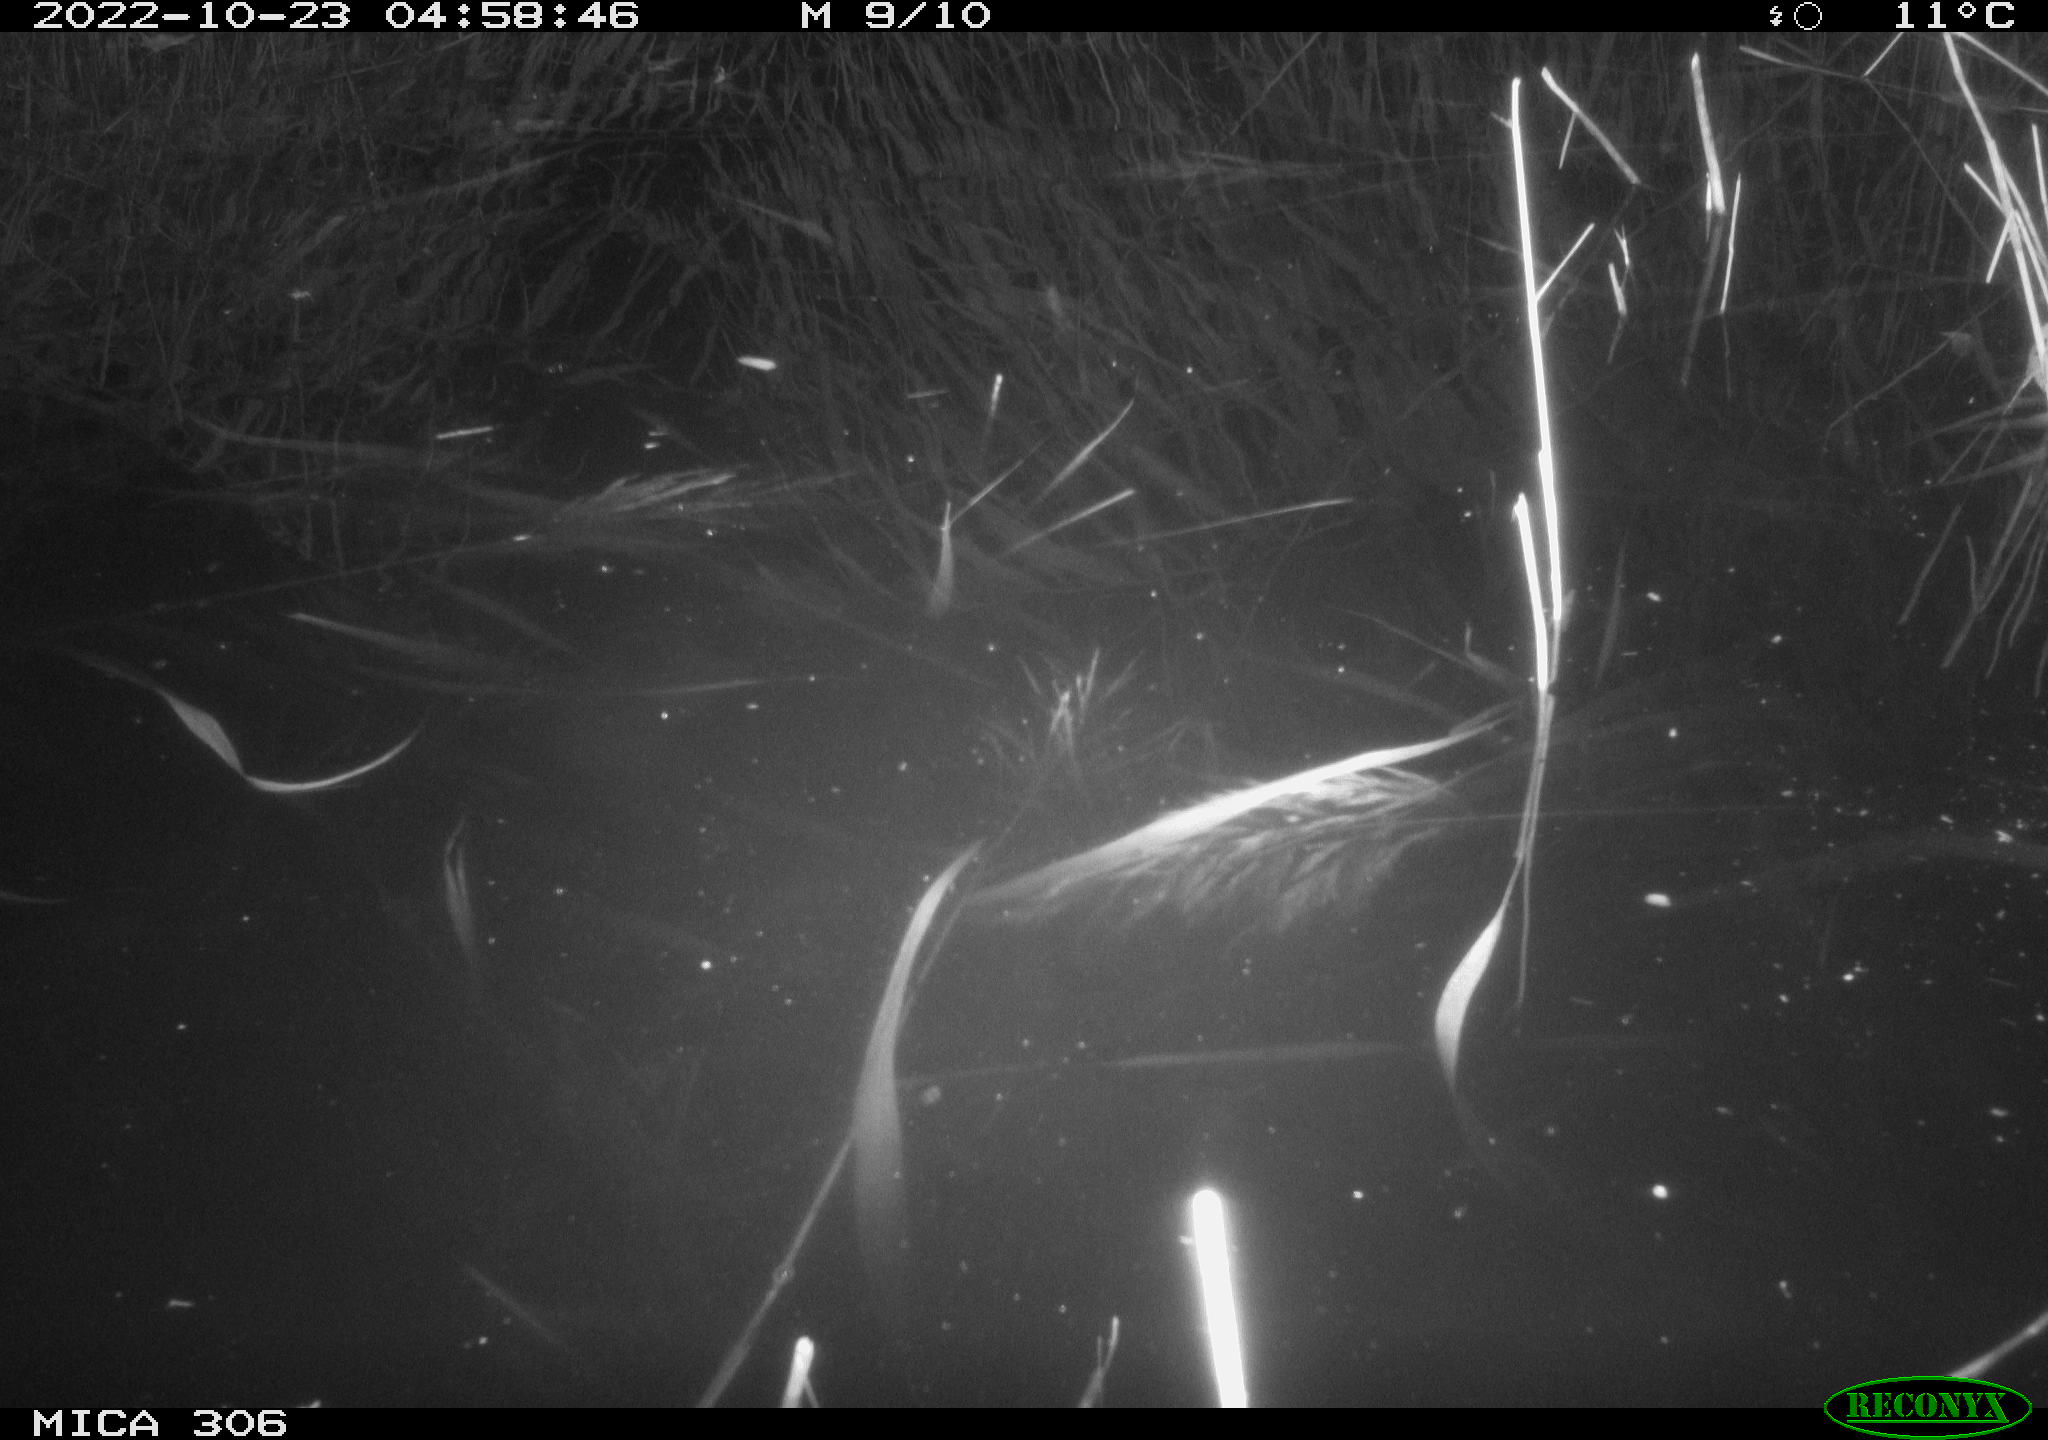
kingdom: Animalia
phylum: Chordata
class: Mammalia
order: Rodentia
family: Muridae
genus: Rattus
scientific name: Rattus norvegicus
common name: Brown rat
